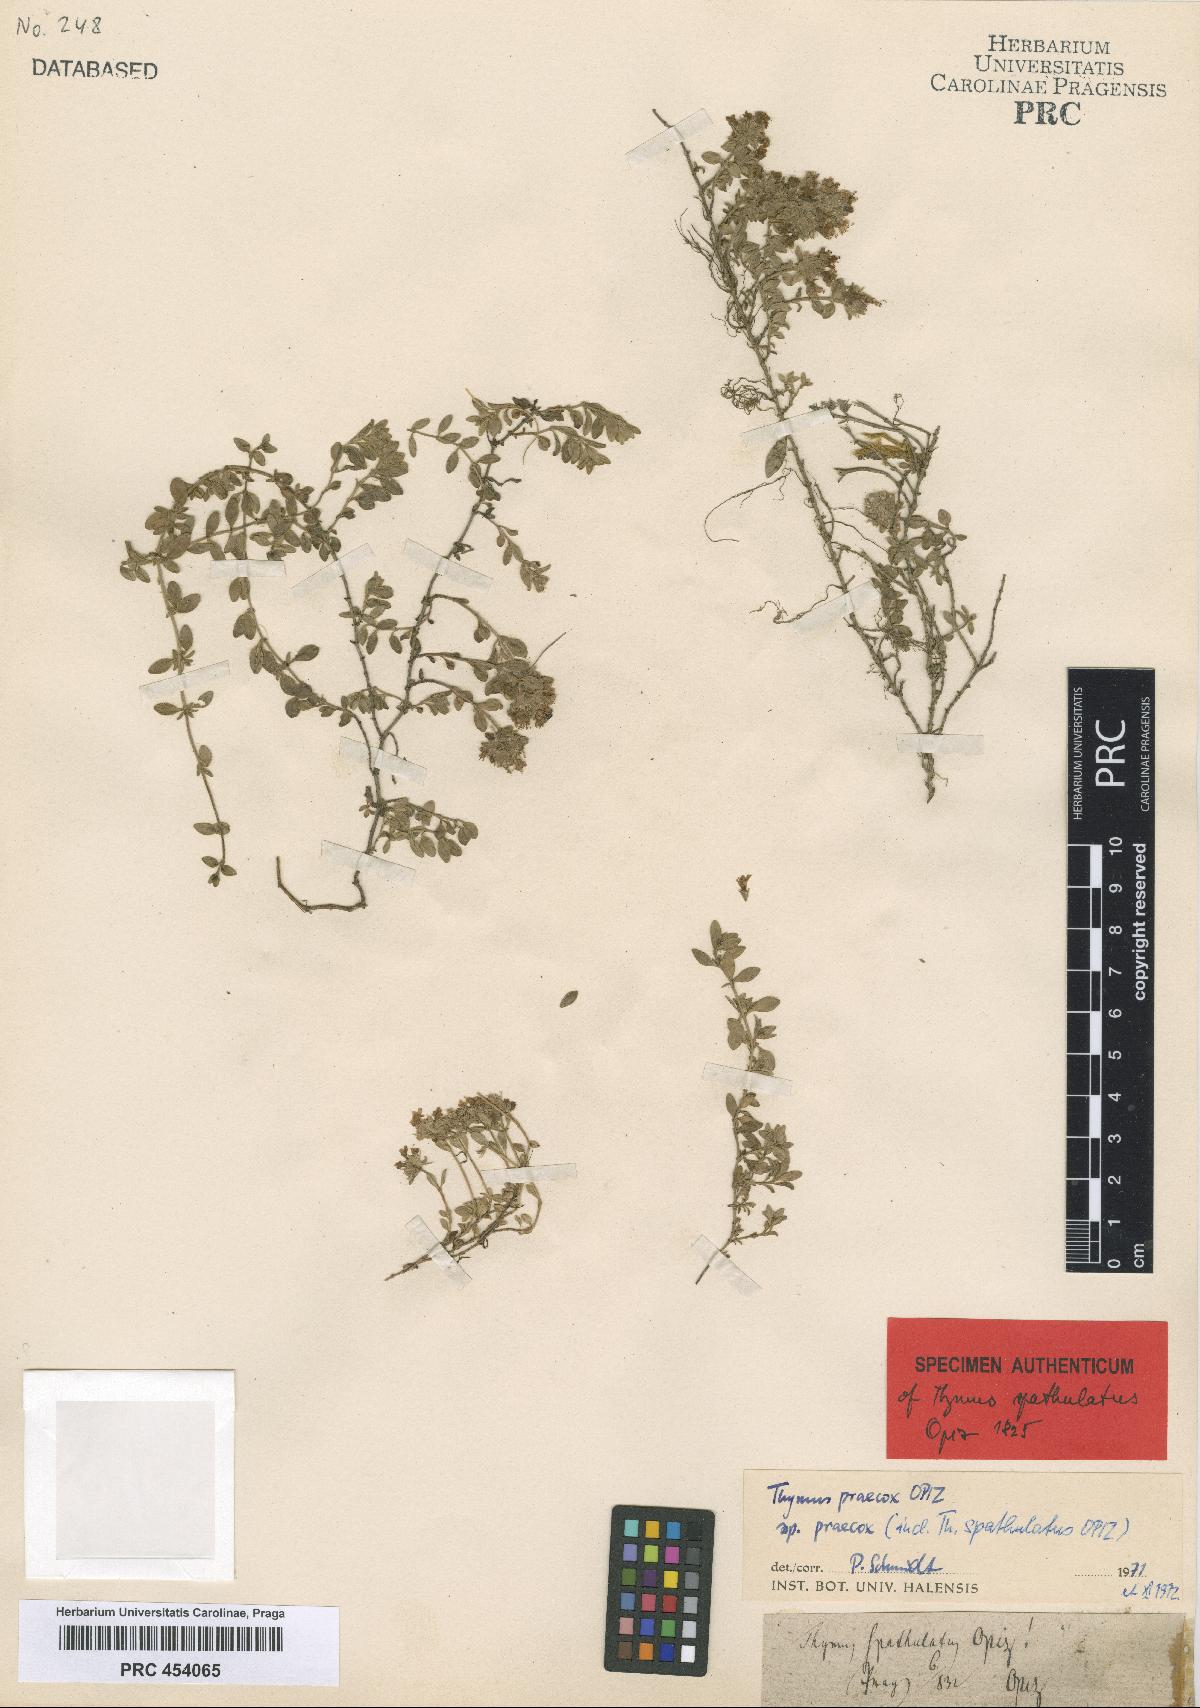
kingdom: Plantae
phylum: Tracheophyta
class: Magnoliopsida
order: Lamiales
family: Lamiaceae
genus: Thymus
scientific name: Thymus praecox
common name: Wild thyme
